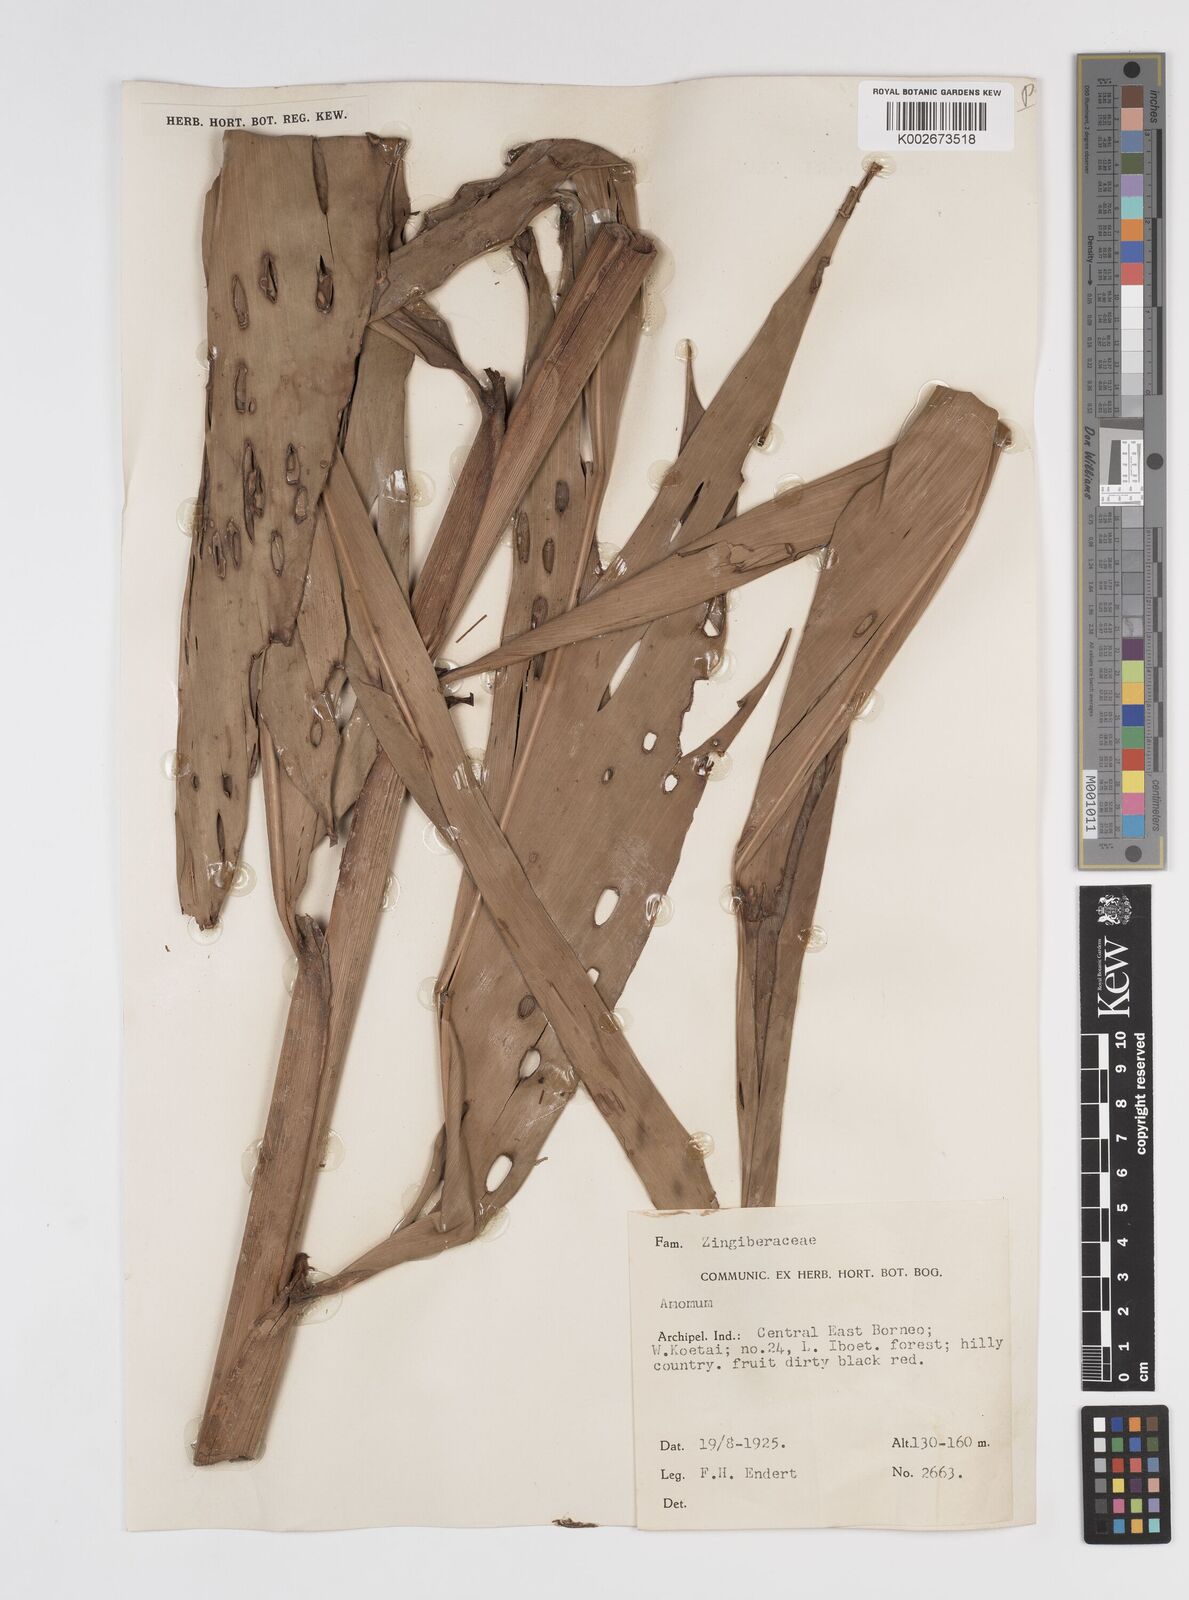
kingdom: Plantae
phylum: Tracheophyta
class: Liliopsida
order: Zingiberales
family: Zingiberaceae
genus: Amomum
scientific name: Amomum
